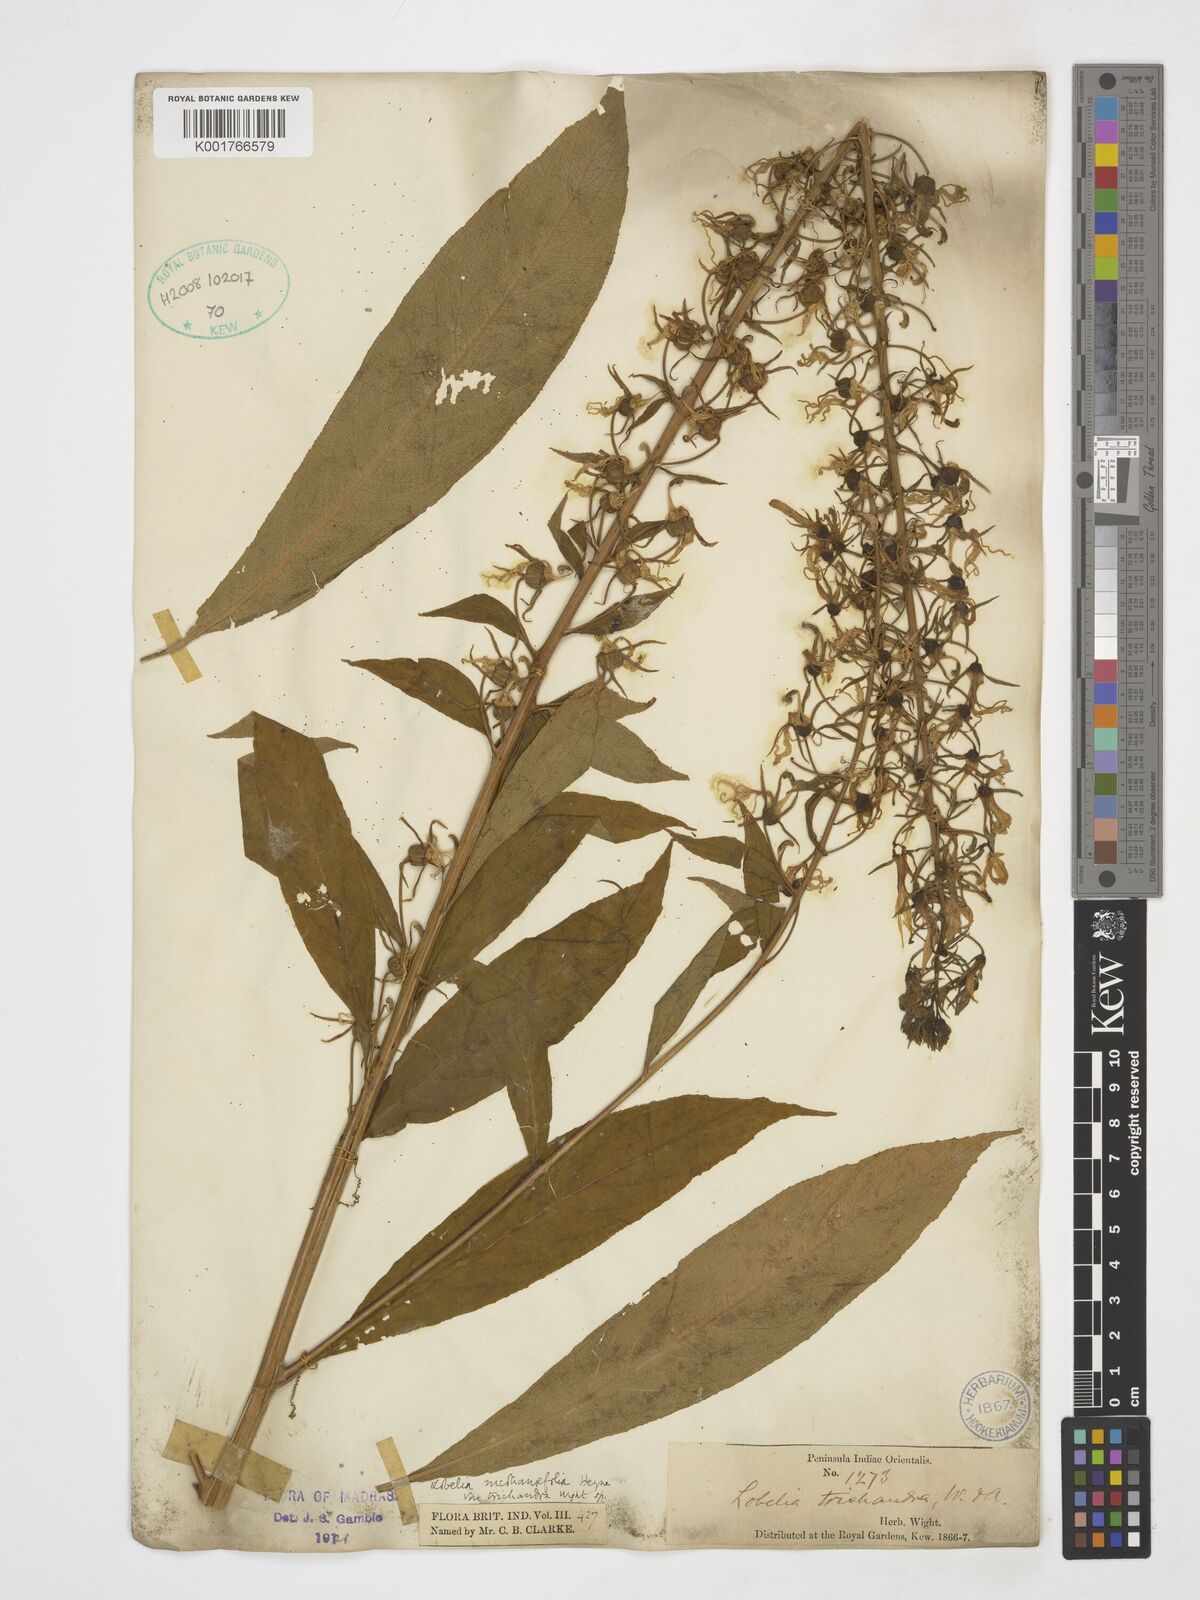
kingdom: Plantae
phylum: Tracheophyta
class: Magnoliopsida
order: Asterales
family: Campanulaceae
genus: Lobelia
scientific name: Lobelia nicotianifolia
